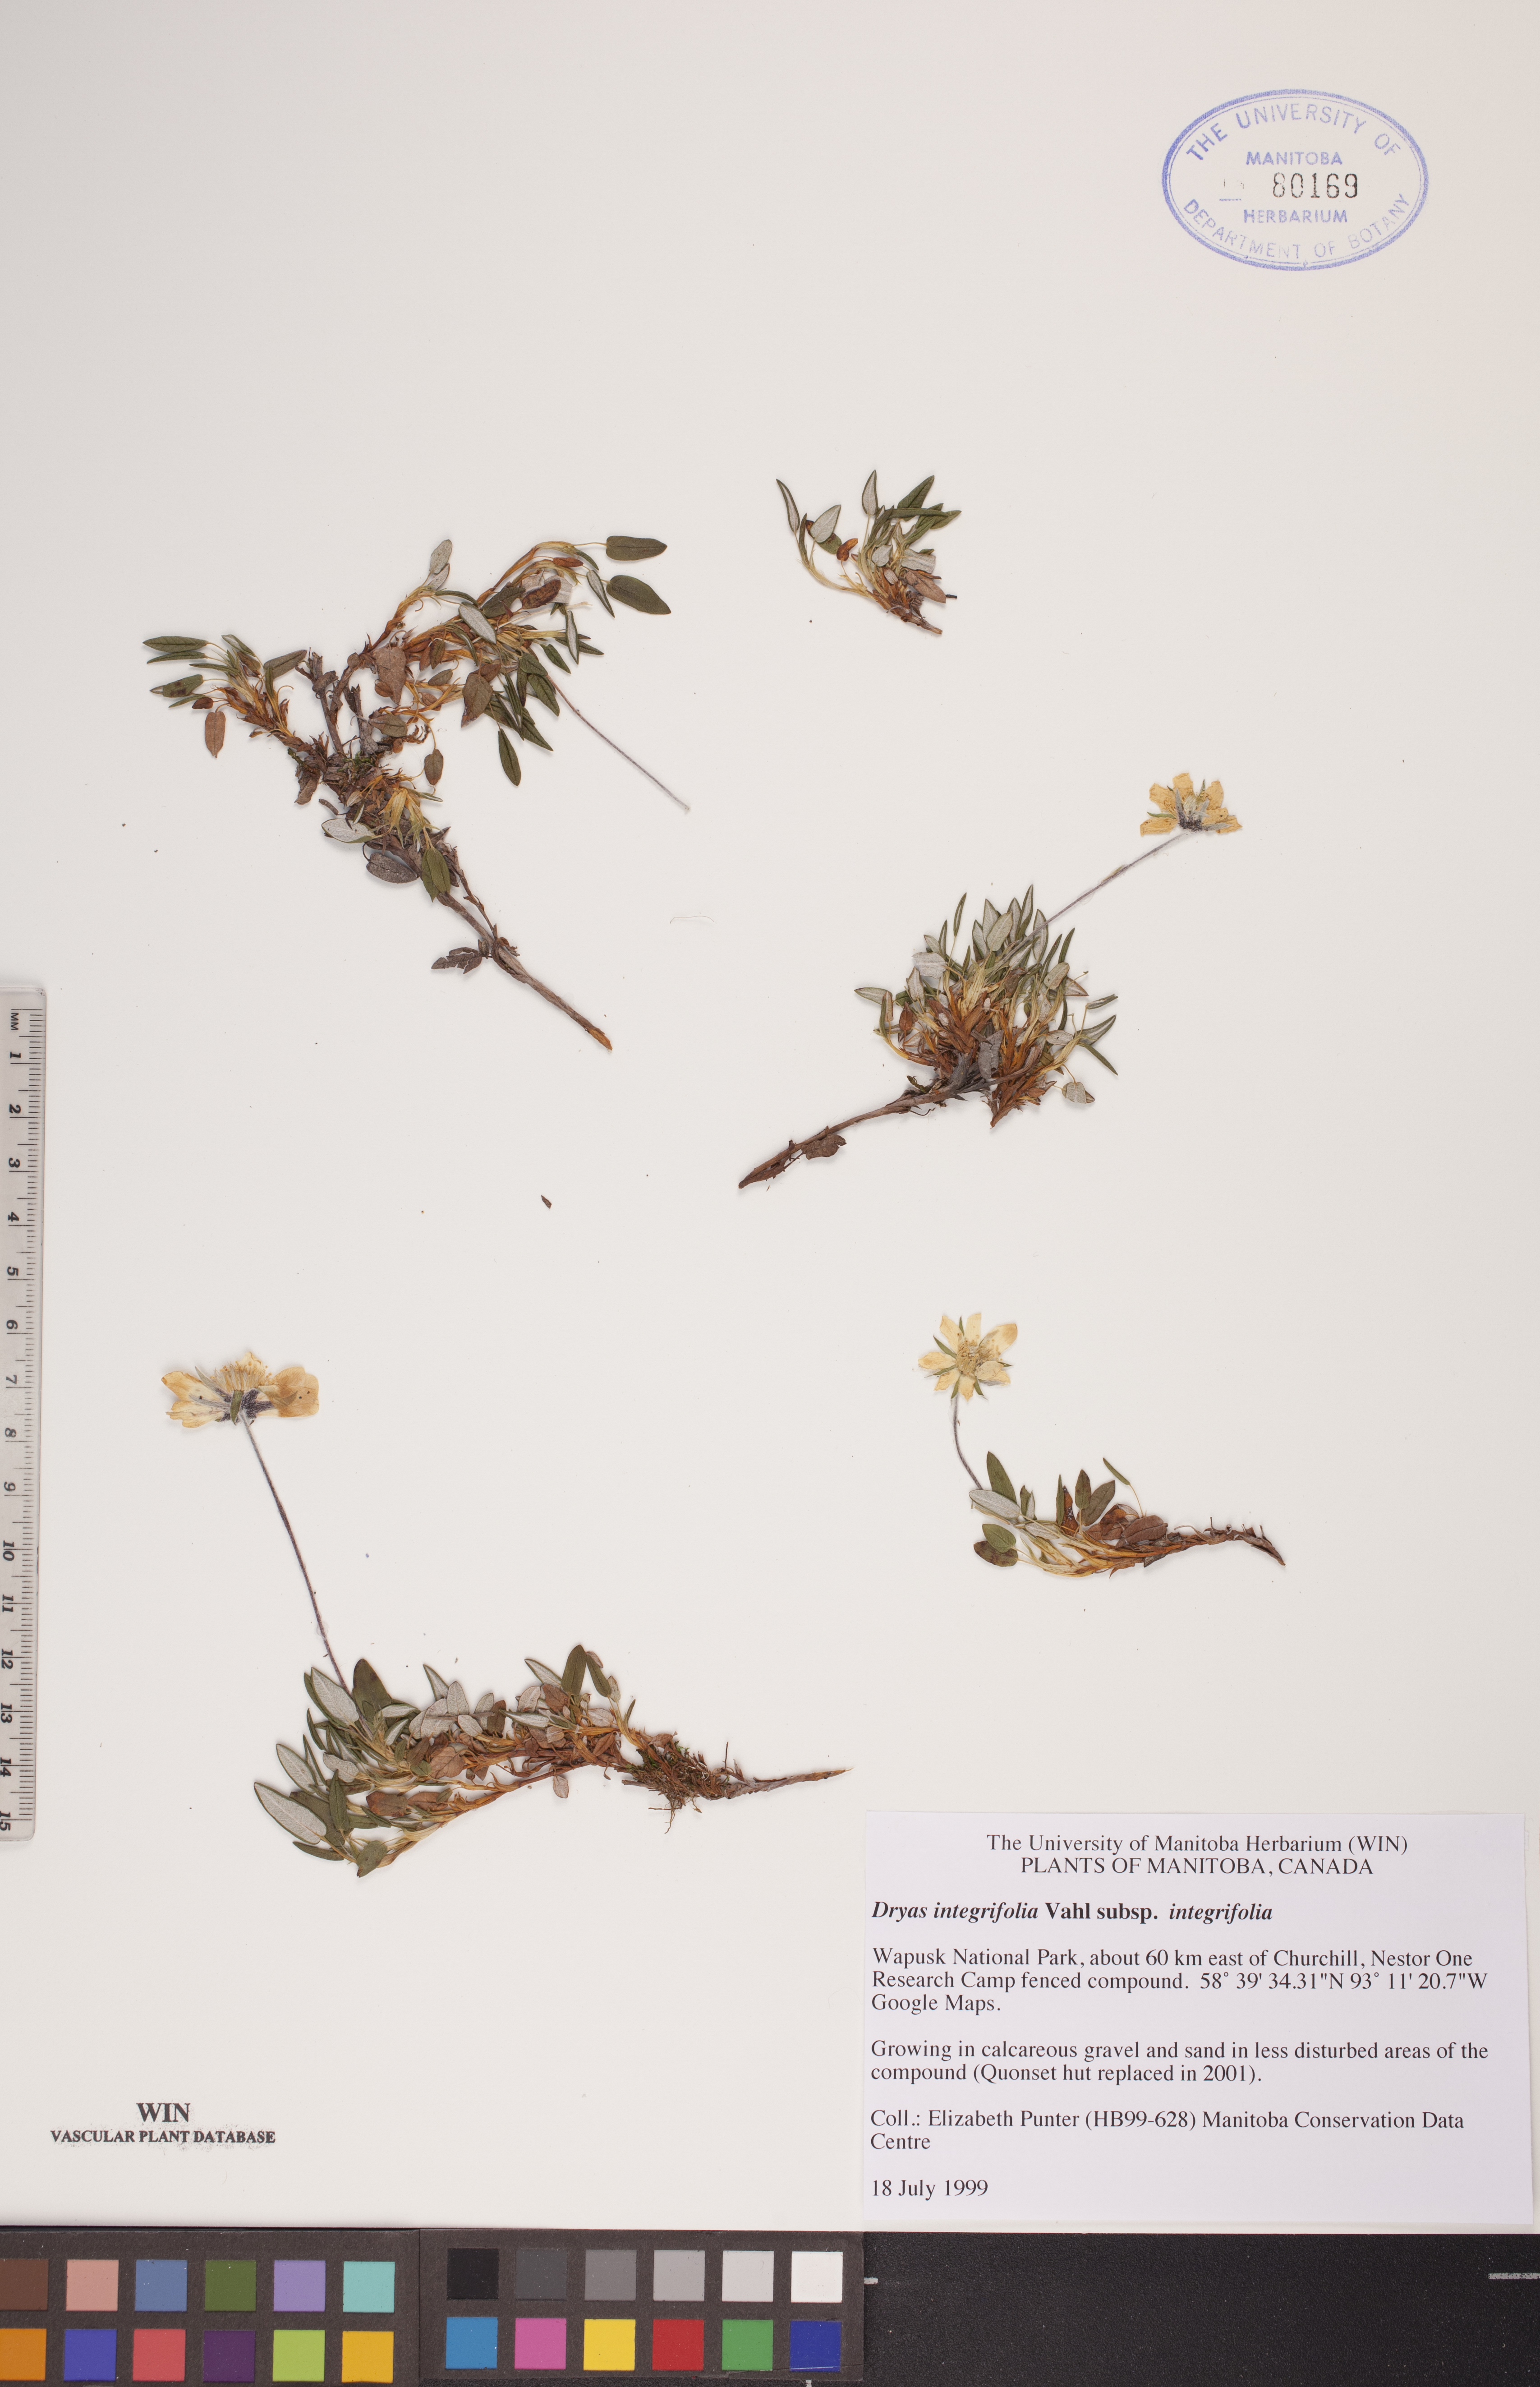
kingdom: Plantae
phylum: Tracheophyta
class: Magnoliopsida
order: Rosales
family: Rosaceae
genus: Dryas
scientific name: Dryas integrifolia
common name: Entire-leaved mountain avens
